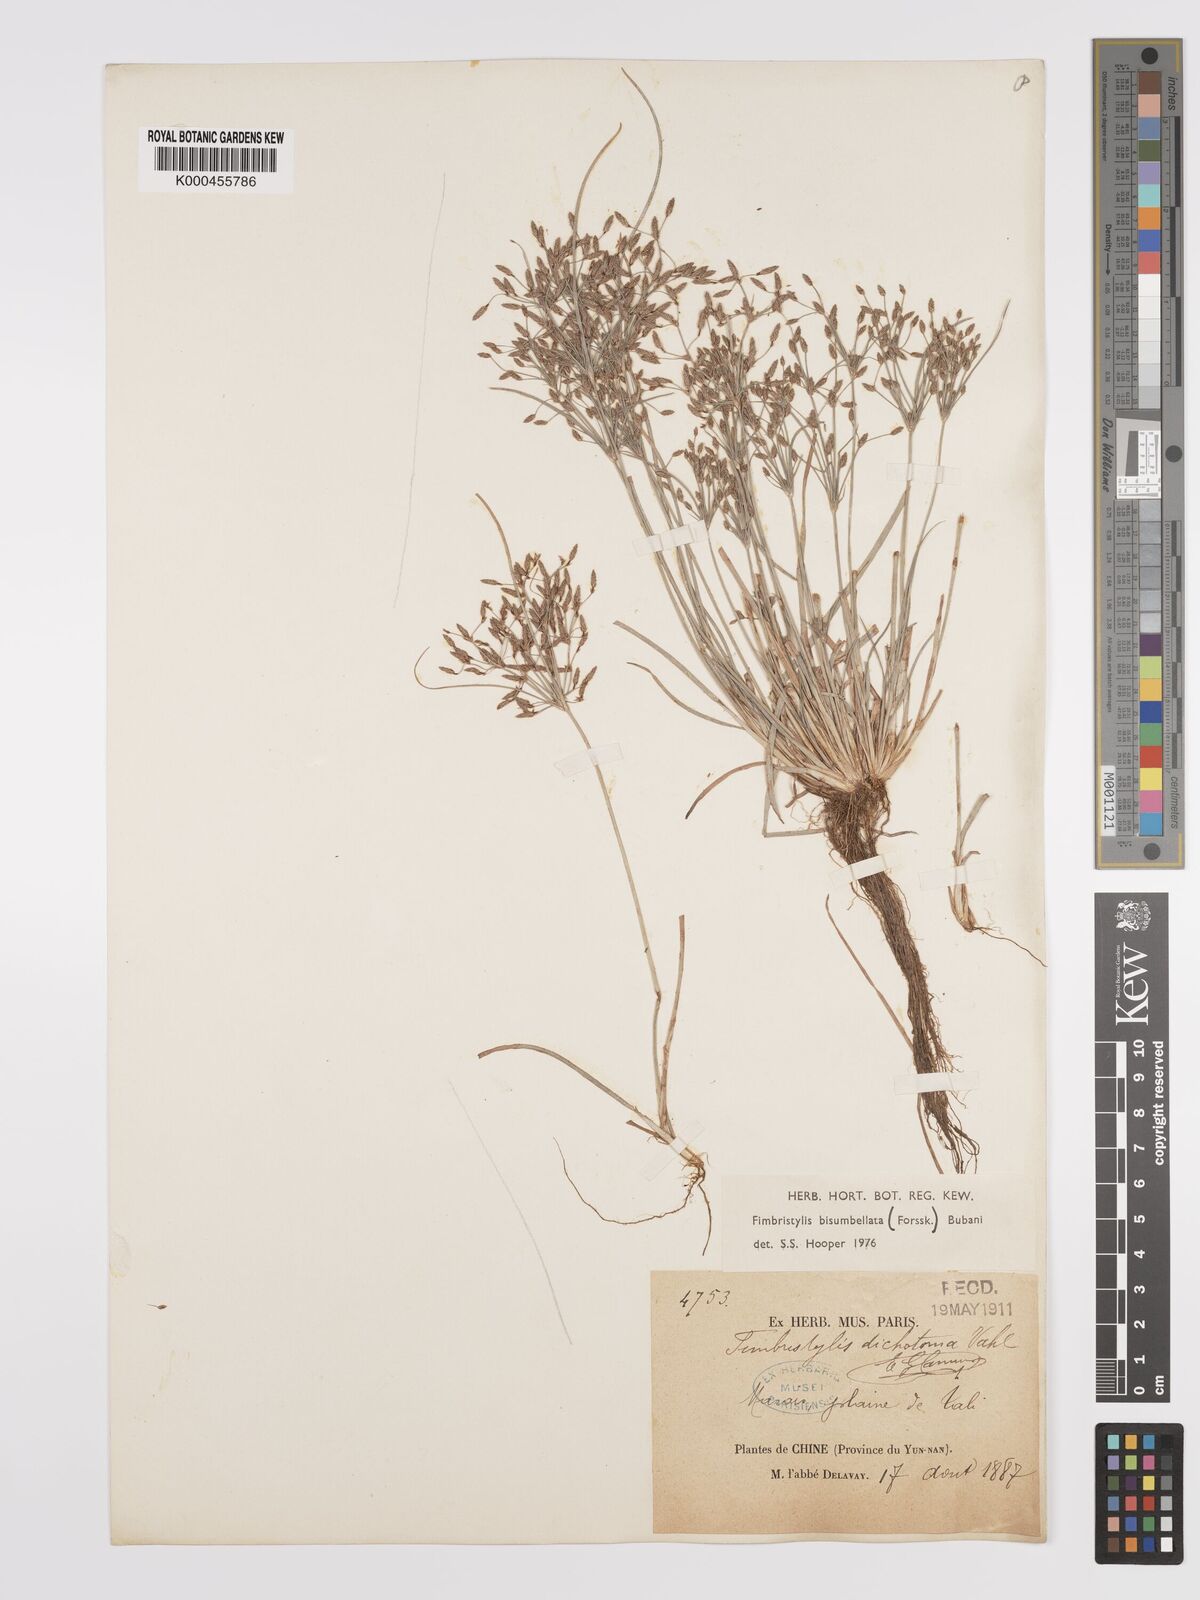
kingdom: Plantae
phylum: Tracheophyta
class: Liliopsida
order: Poales
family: Cyperaceae
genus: Fimbristylis
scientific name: Fimbristylis dichotoma
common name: Forked fimbry
